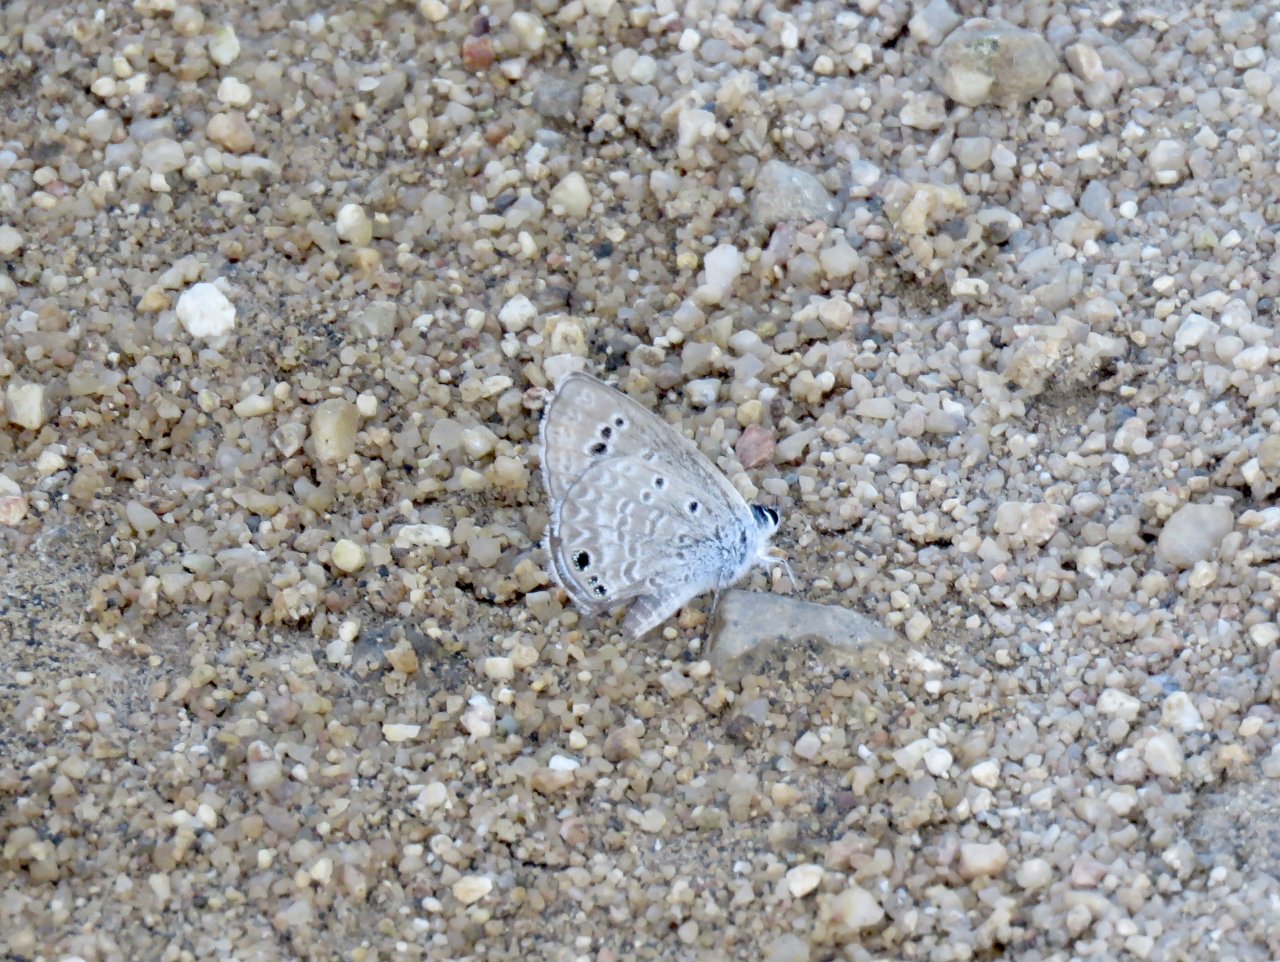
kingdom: Animalia
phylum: Arthropoda
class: Insecta
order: Lepidoptera
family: Lycaenidae
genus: Echinargus
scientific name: Echinargus isola
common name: Reakirt's Blue
